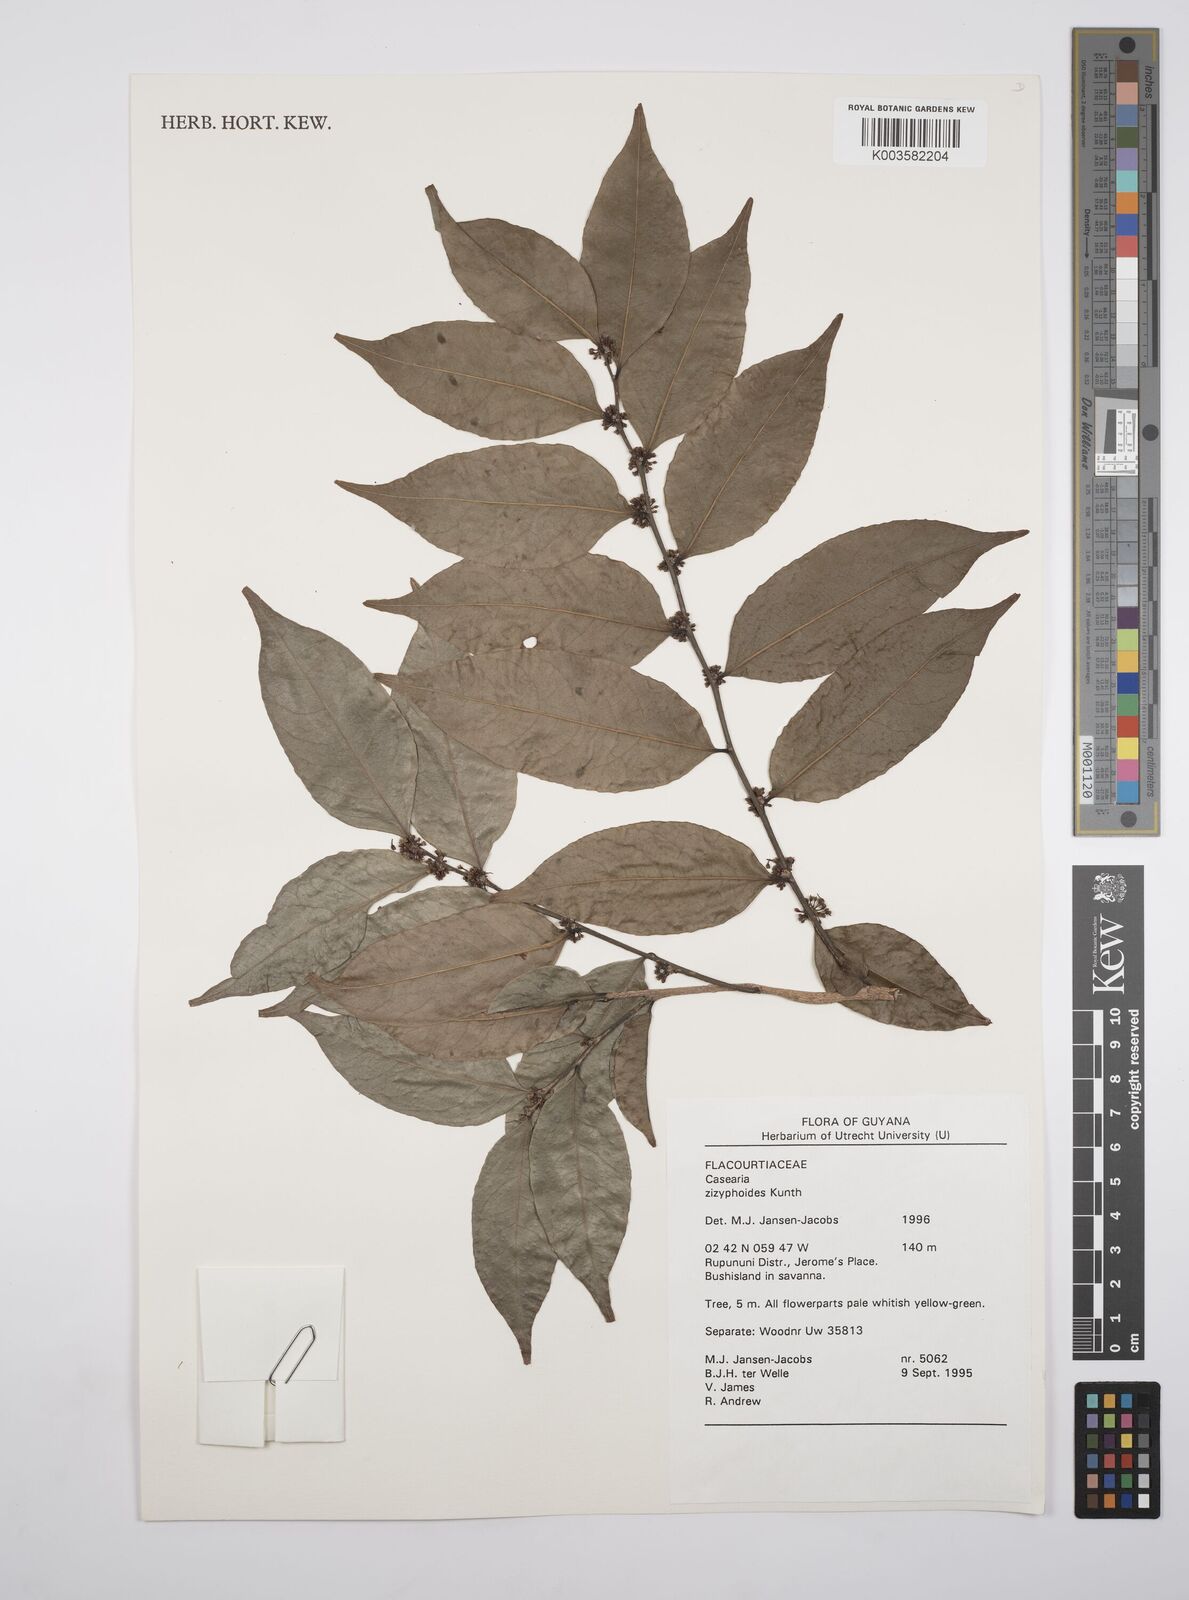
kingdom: Plantae
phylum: Tracheophyta
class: Magnoliopsida
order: Malpighiales
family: Salicaceae
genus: Casearia
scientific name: Casearia zizyphoides
